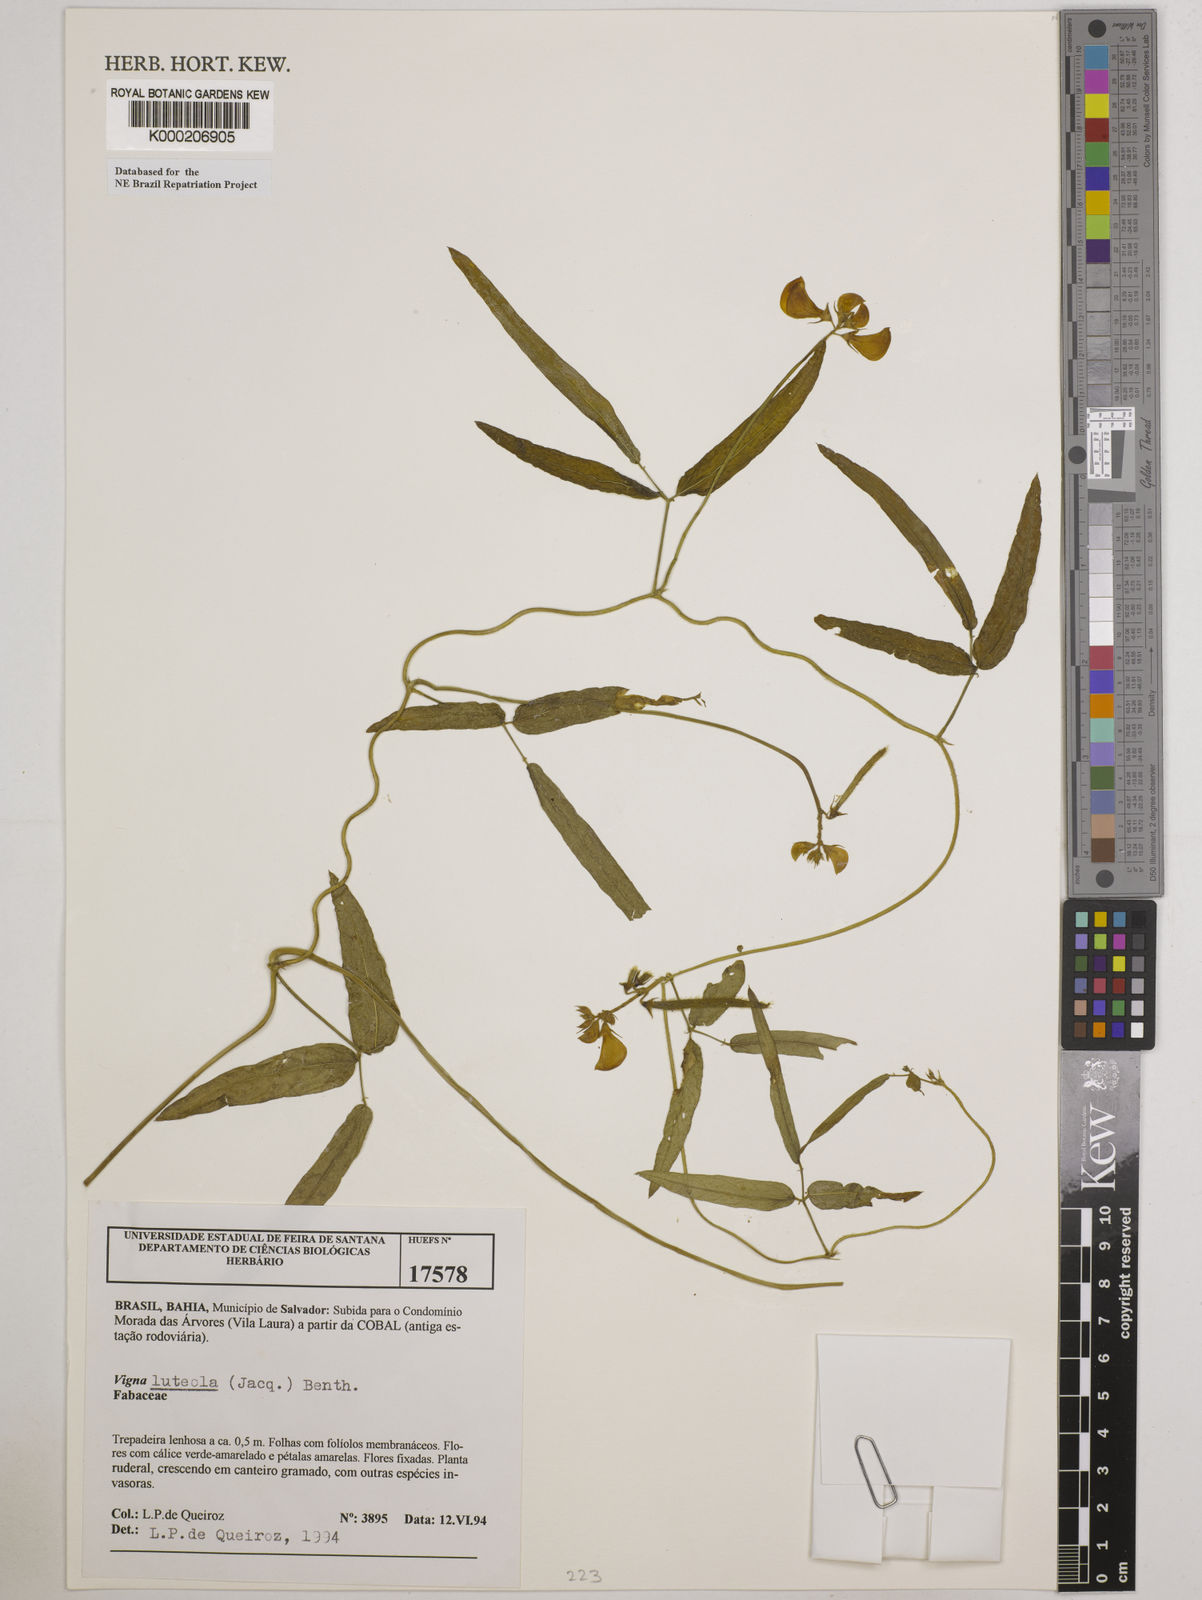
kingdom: Plantae
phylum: Tracheophyta
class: Magnoliopsida
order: Fabales
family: Fabaceae
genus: Vigna
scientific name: Vigna luteola
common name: Hairypod cowpea
